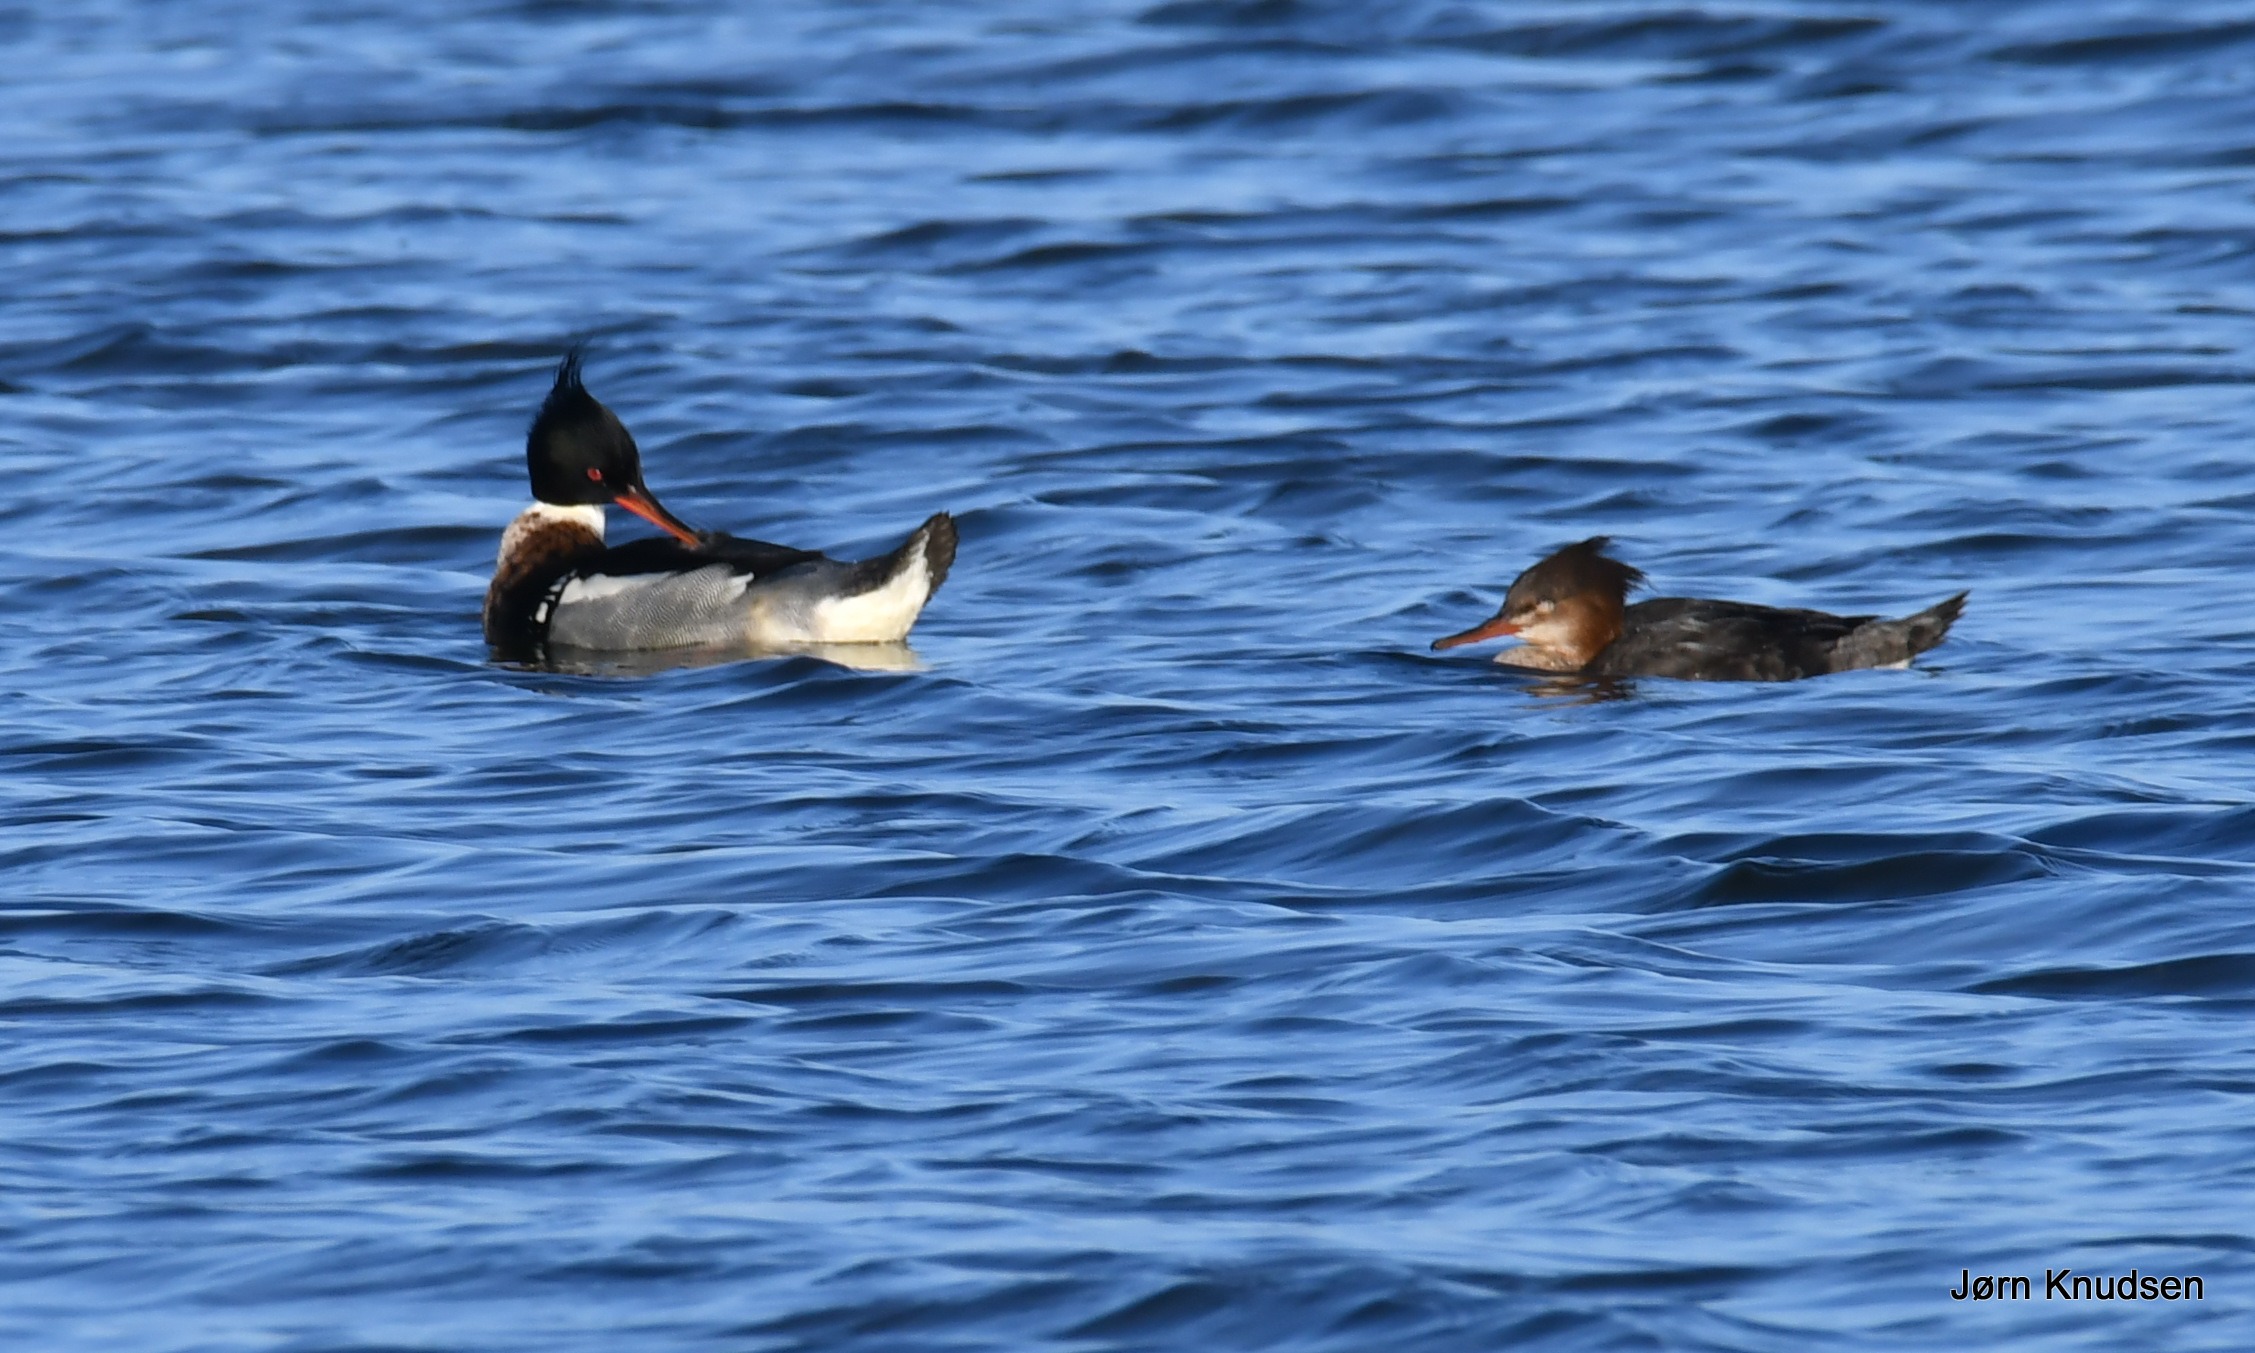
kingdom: Animalia
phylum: Chordata
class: Aves
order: Anseriformes
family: Anatidae
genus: Mergus
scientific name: Mergus serrator
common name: Toppet skallesluger
